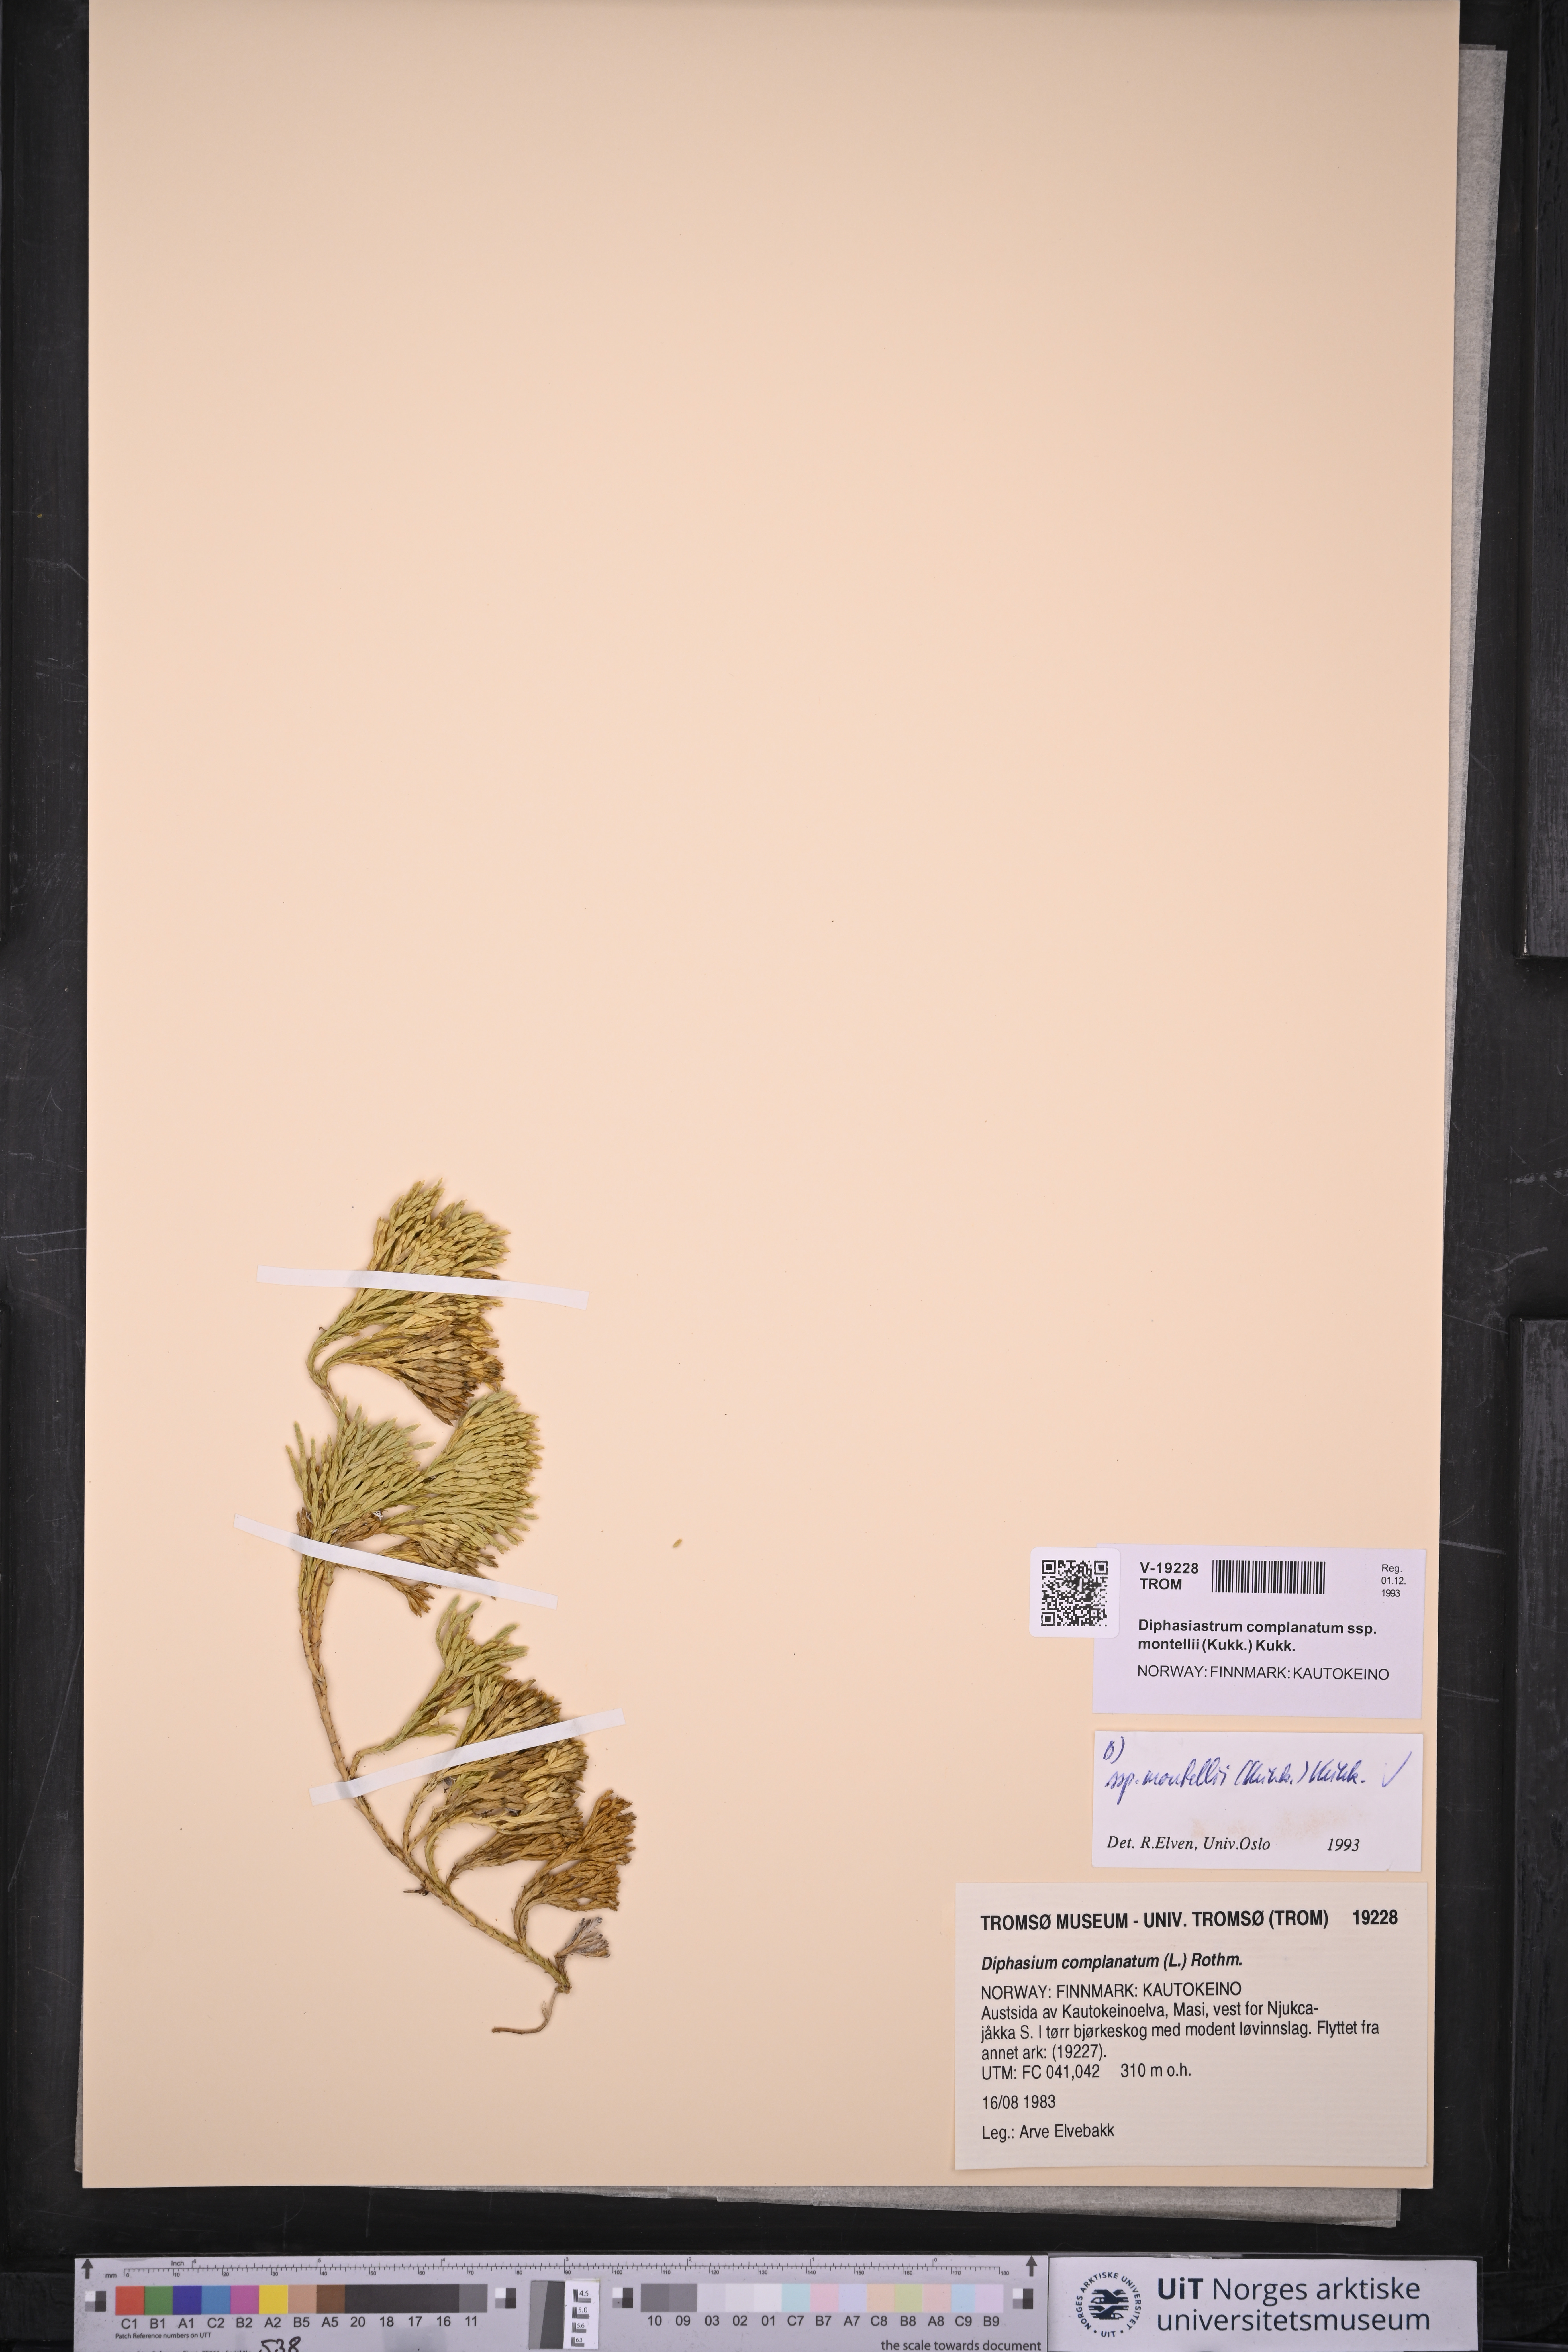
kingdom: Plantae
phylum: Tracheophyta
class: Lycopodiopsida
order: Lycopodiales
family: Lycopodiaceae
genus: Diphasiastrum
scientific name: Diphasiastrum complanatum
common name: Northern running-pine
